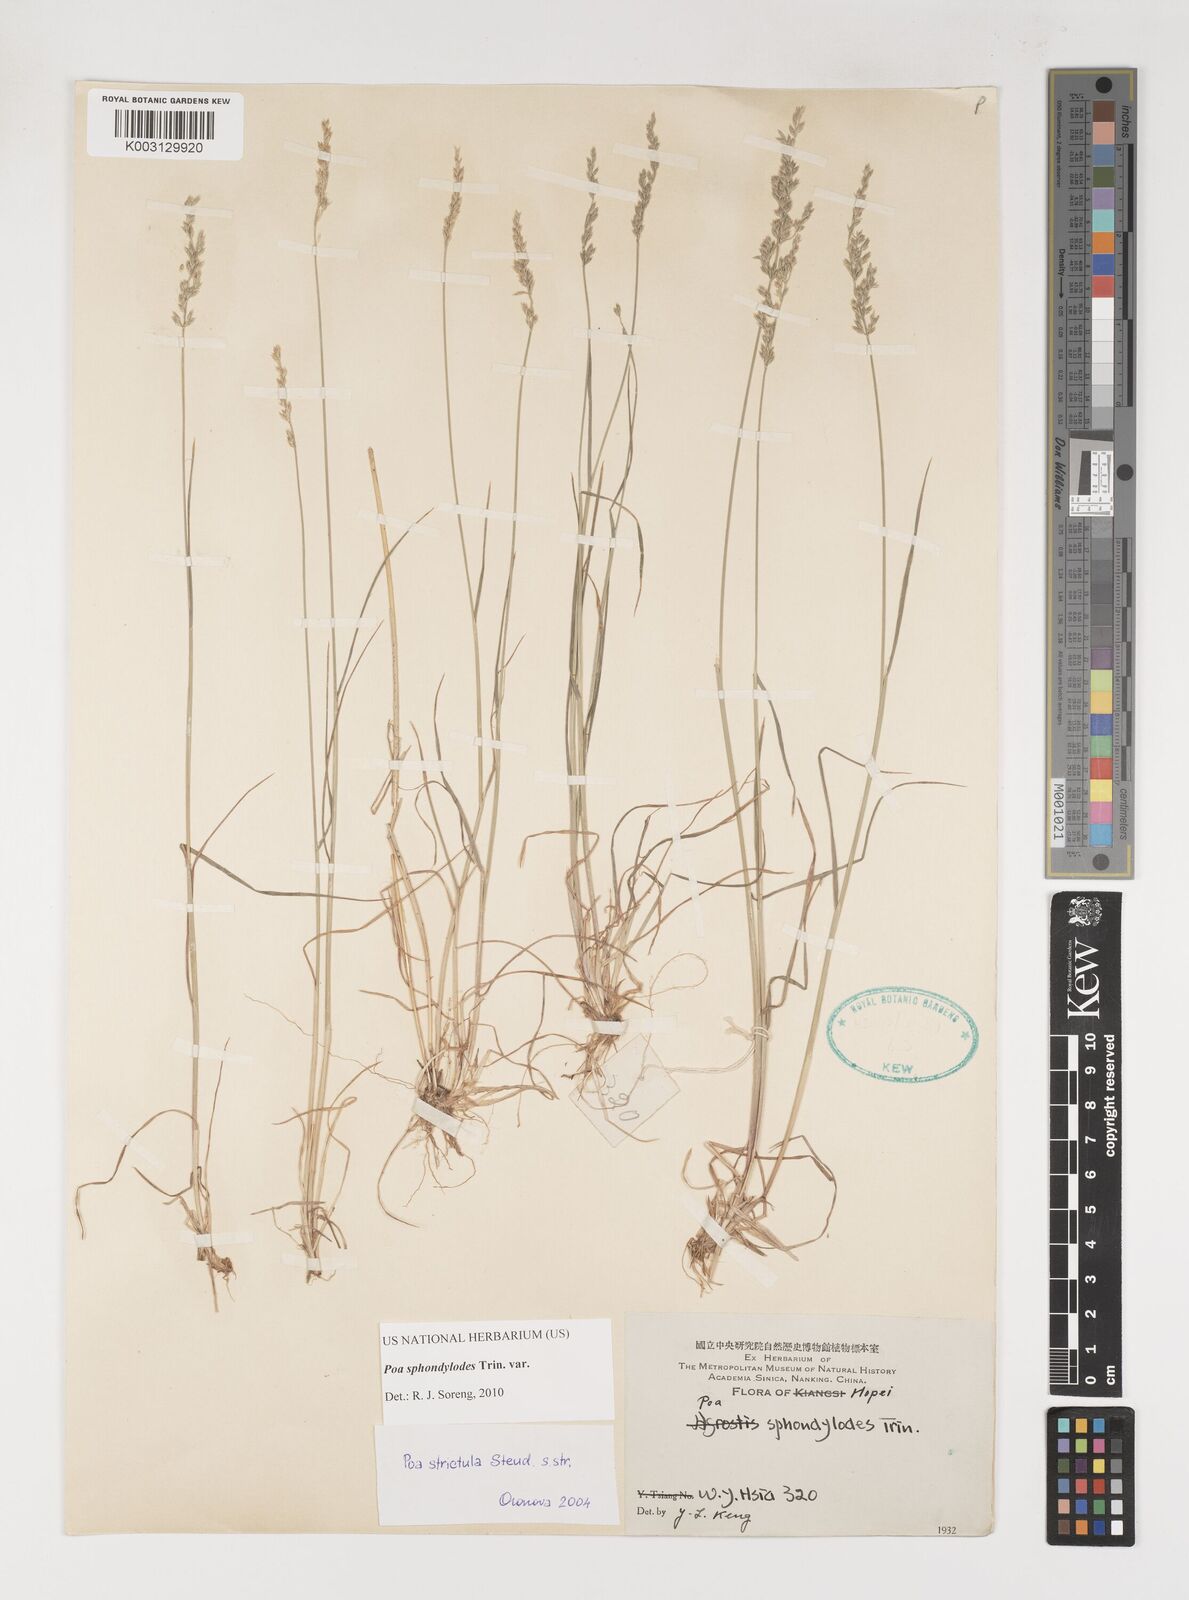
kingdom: Plantae
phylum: Tracheophyta
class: Liliopsida
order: Poales
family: Poaceae
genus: Poa
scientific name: Poa sphondylodes
